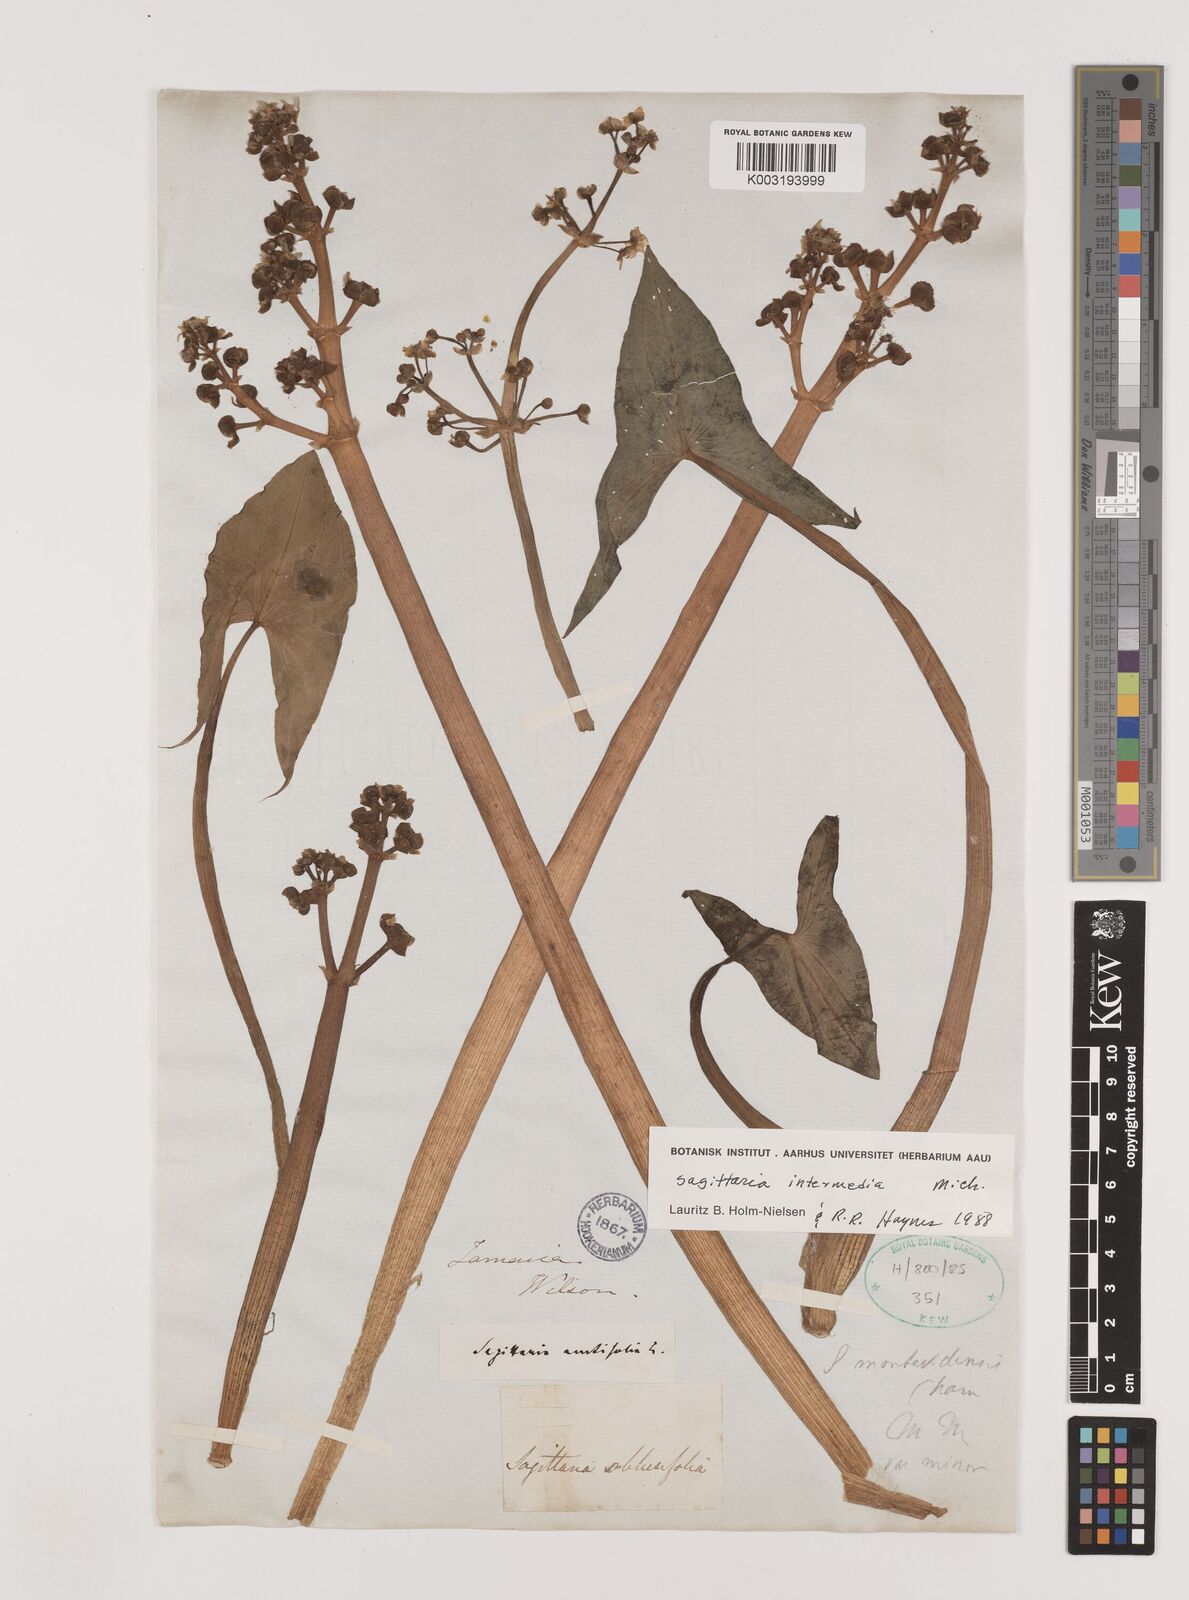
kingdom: Plantae
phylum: Tracheophyta
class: Liliopsida
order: Alismatales
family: Alismataceae
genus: Sagittaria
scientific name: Sagittaria intermedia
